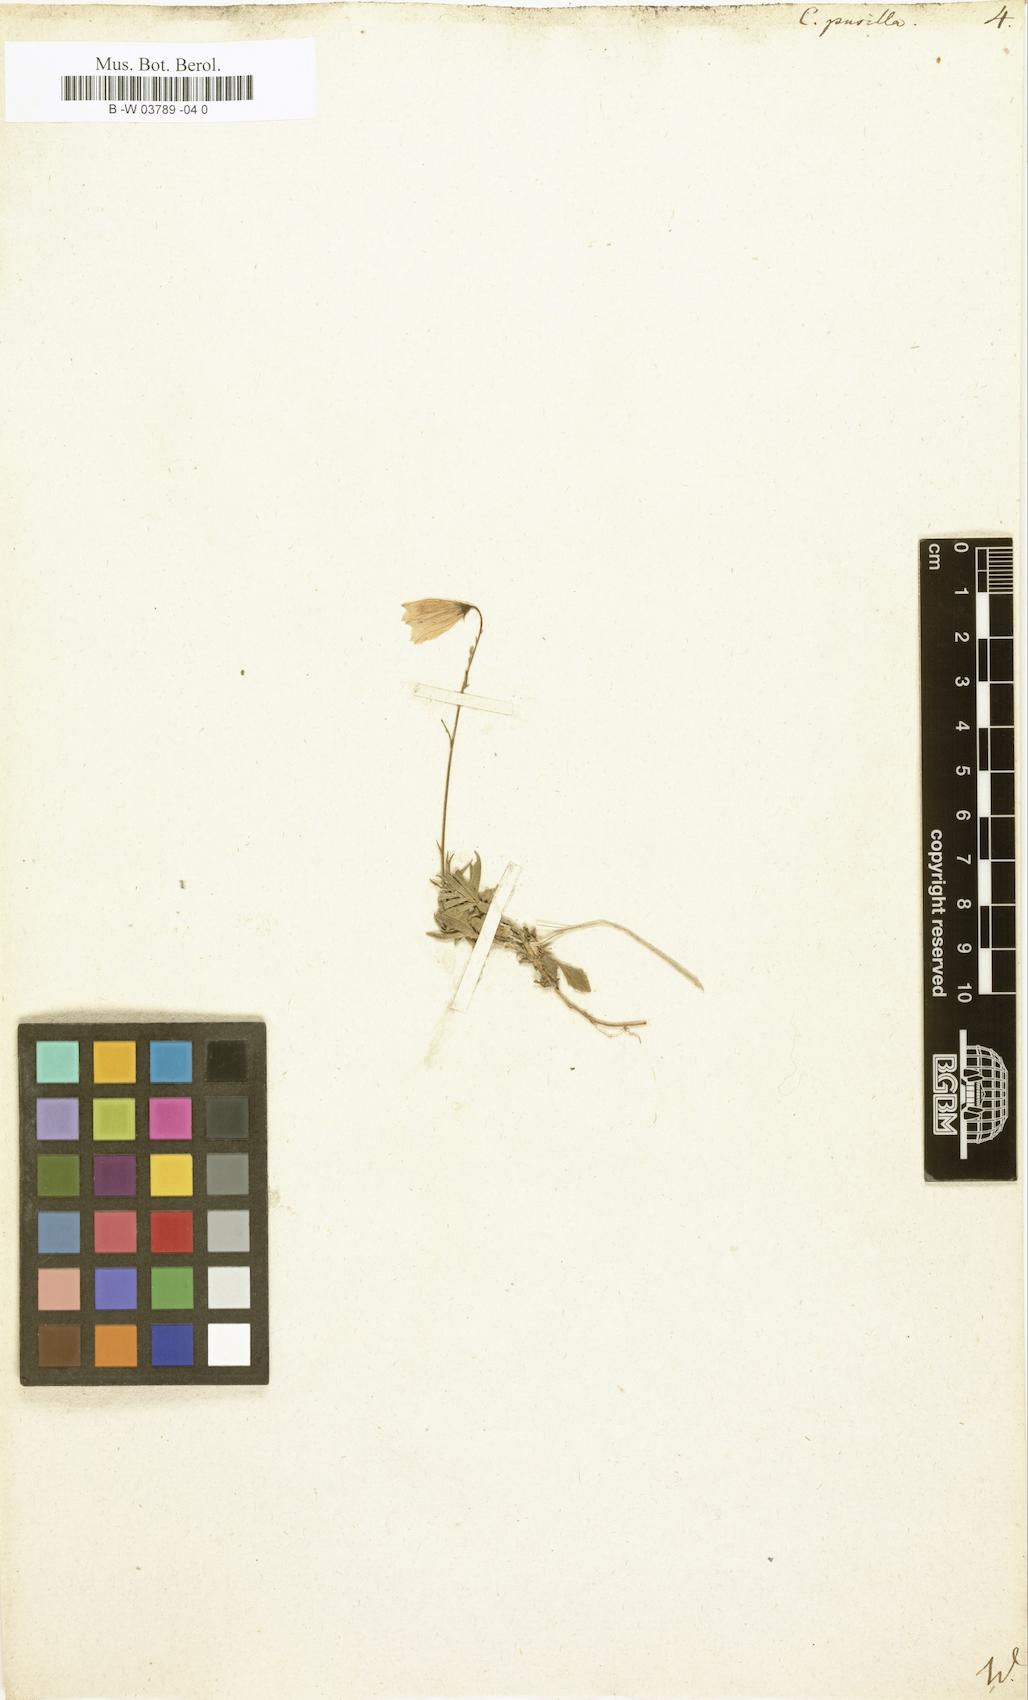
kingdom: Plantae
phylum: Tracheophyta
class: Magnoliopsida
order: Asterales
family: Campanulaceae
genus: Campanula
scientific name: Campanula cochleariifolia
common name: Fairies'-thimbles
